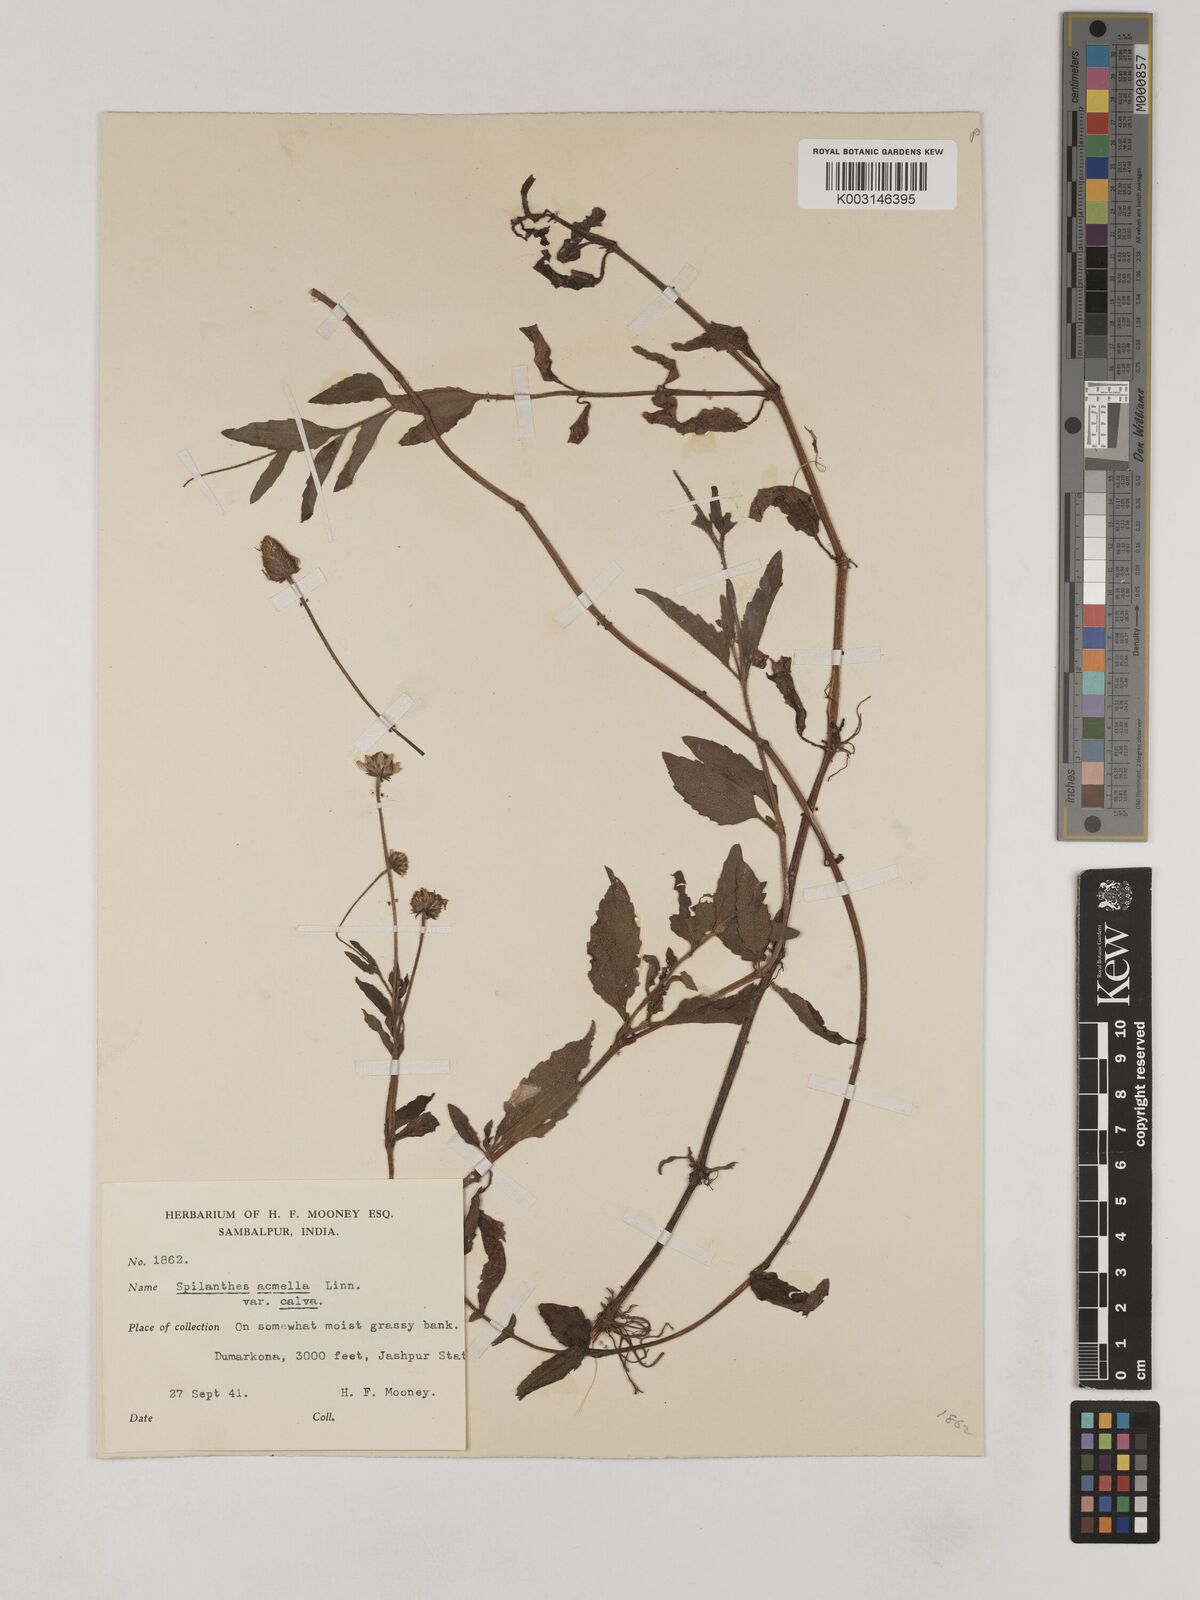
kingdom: Plantae
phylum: Tracheophyta
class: Magnoliopsida
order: Asterales
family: Asteraceae
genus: Acmella
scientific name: Acmella calva
